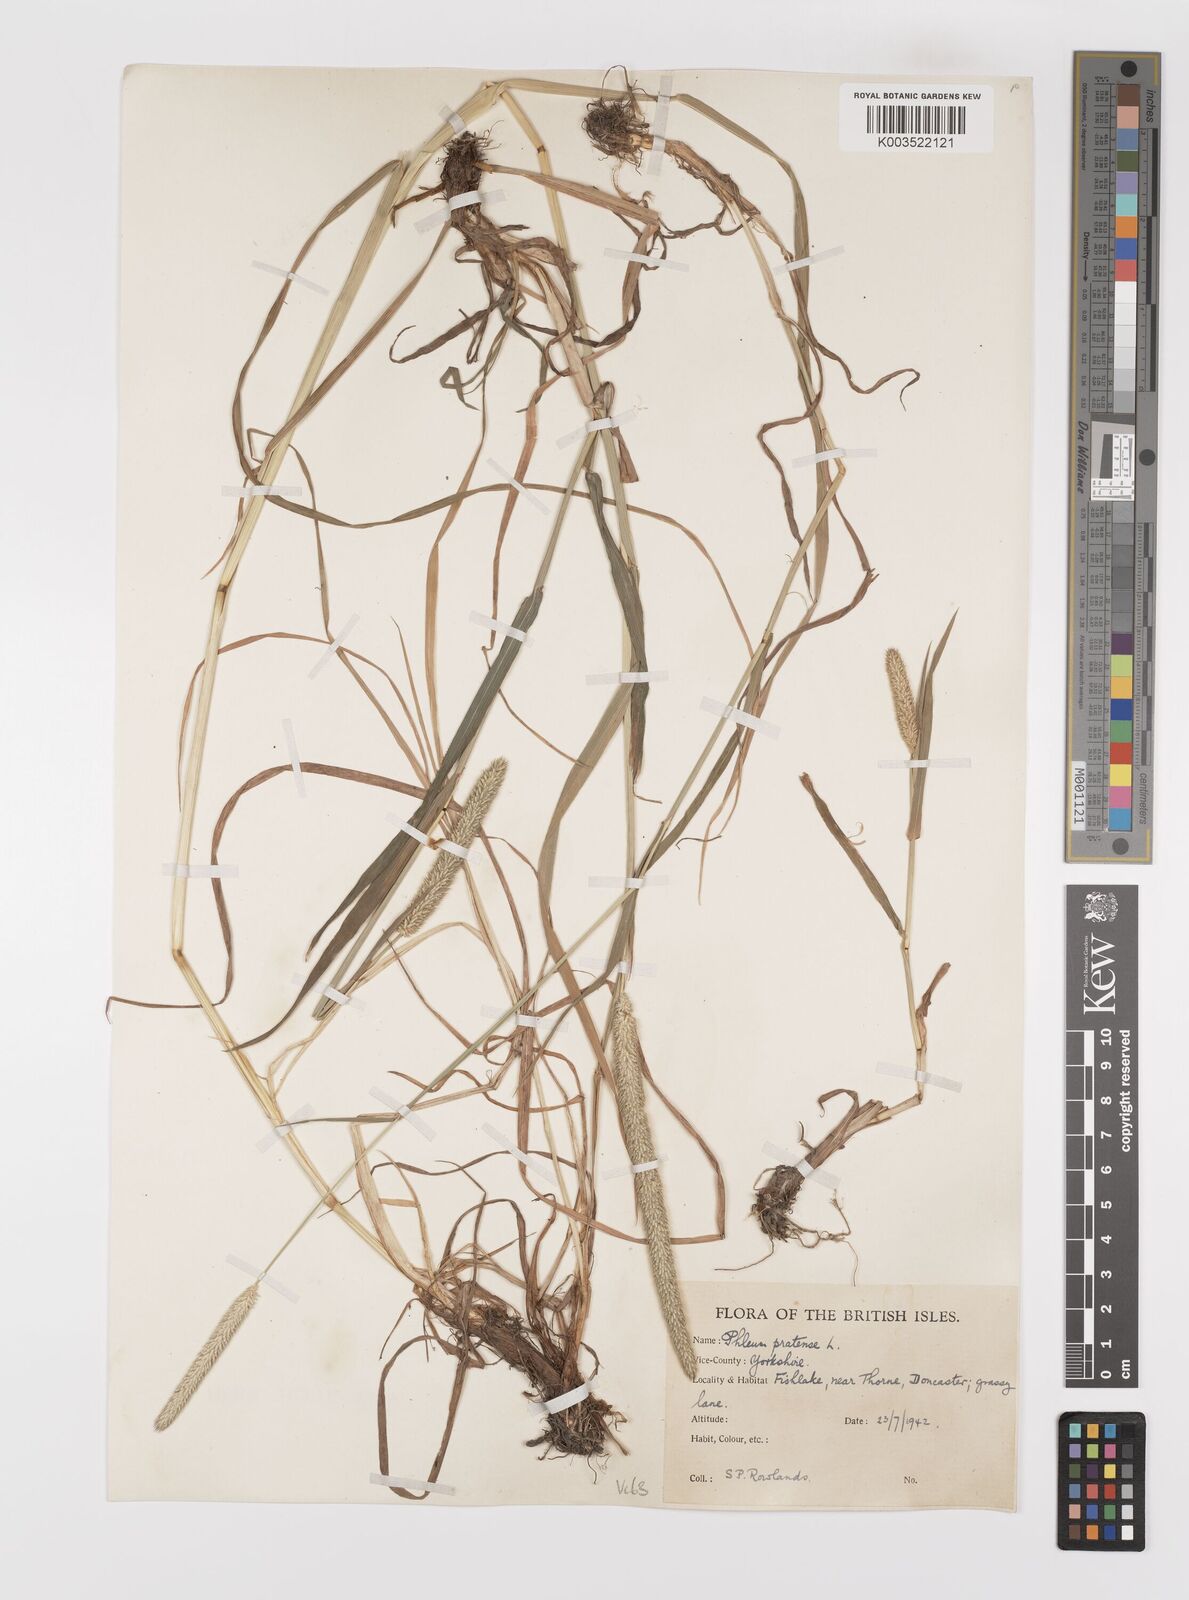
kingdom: Plantae
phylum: Tracheophyta
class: Liliopsida
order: Poales
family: Poaceae
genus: Phleum
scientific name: Phleum pratense
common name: Timothy grass
